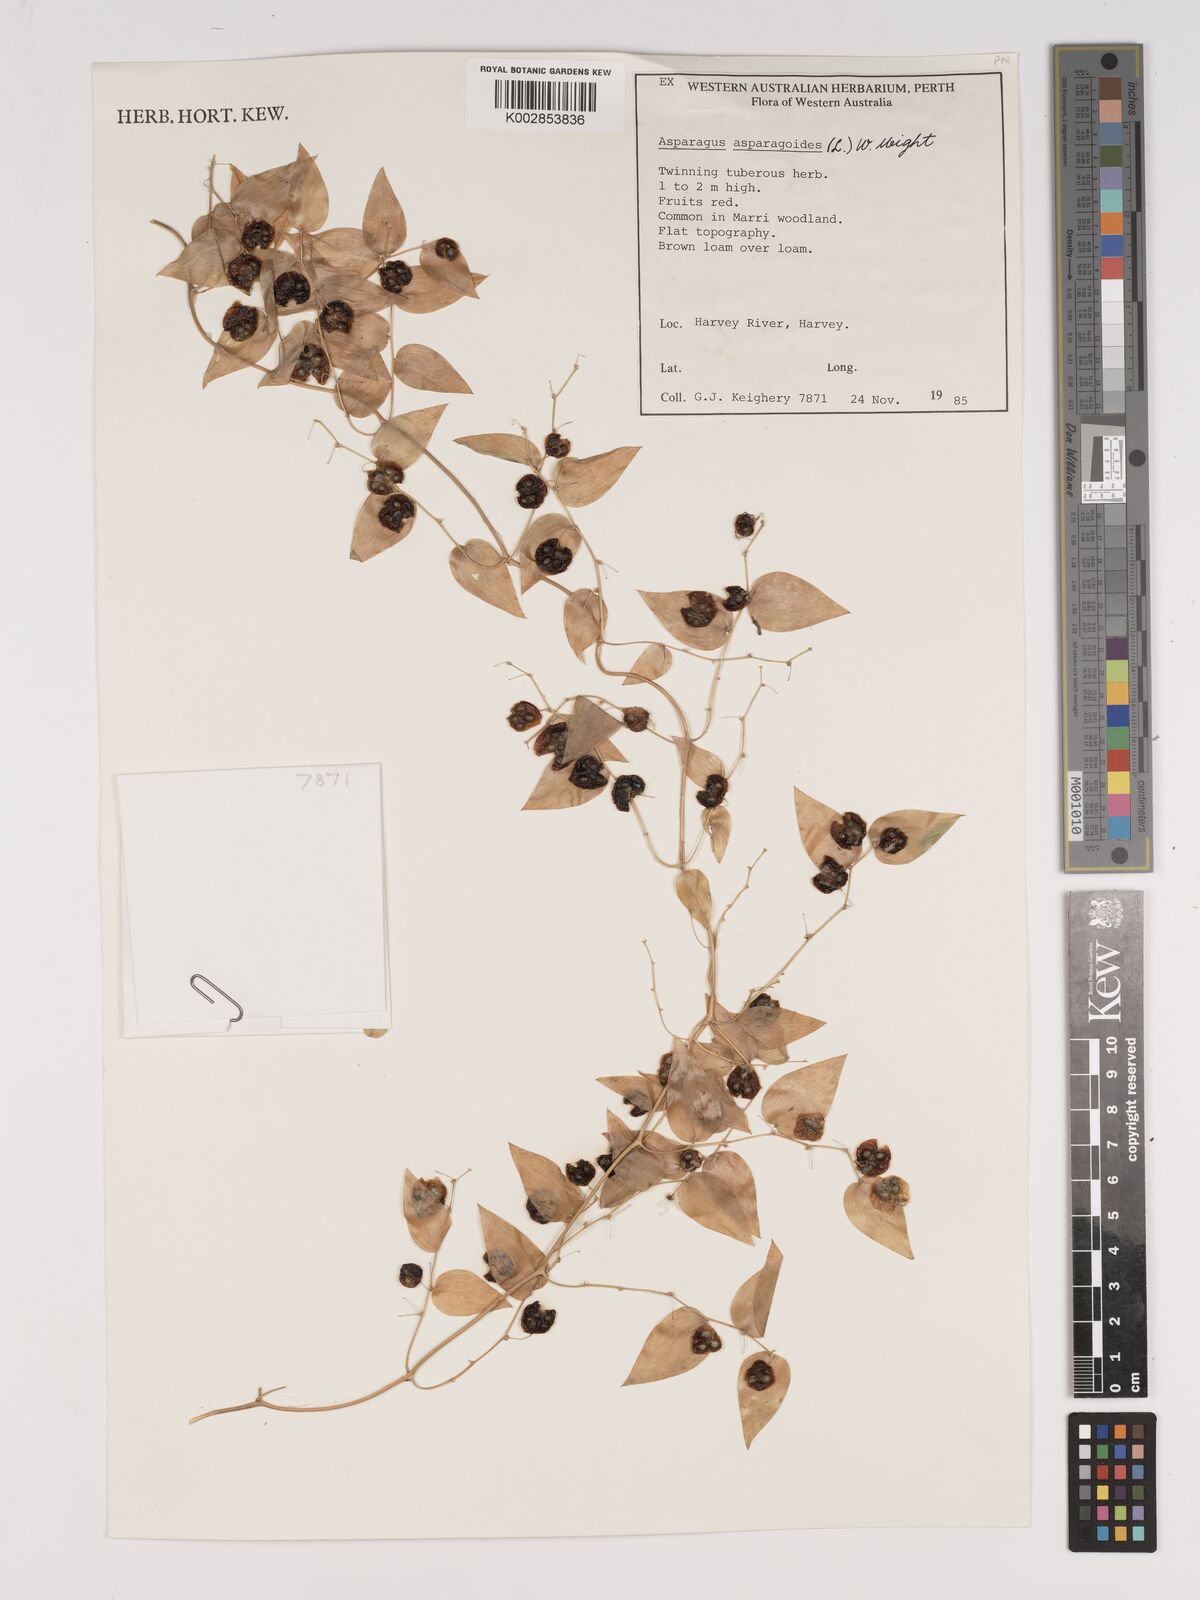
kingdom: Plantae
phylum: Tracheophyta
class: Liliopsida
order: Asparagales
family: Asparagaceae
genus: Asparagus
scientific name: Asparagus asparagoides
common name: African asparagus fern
